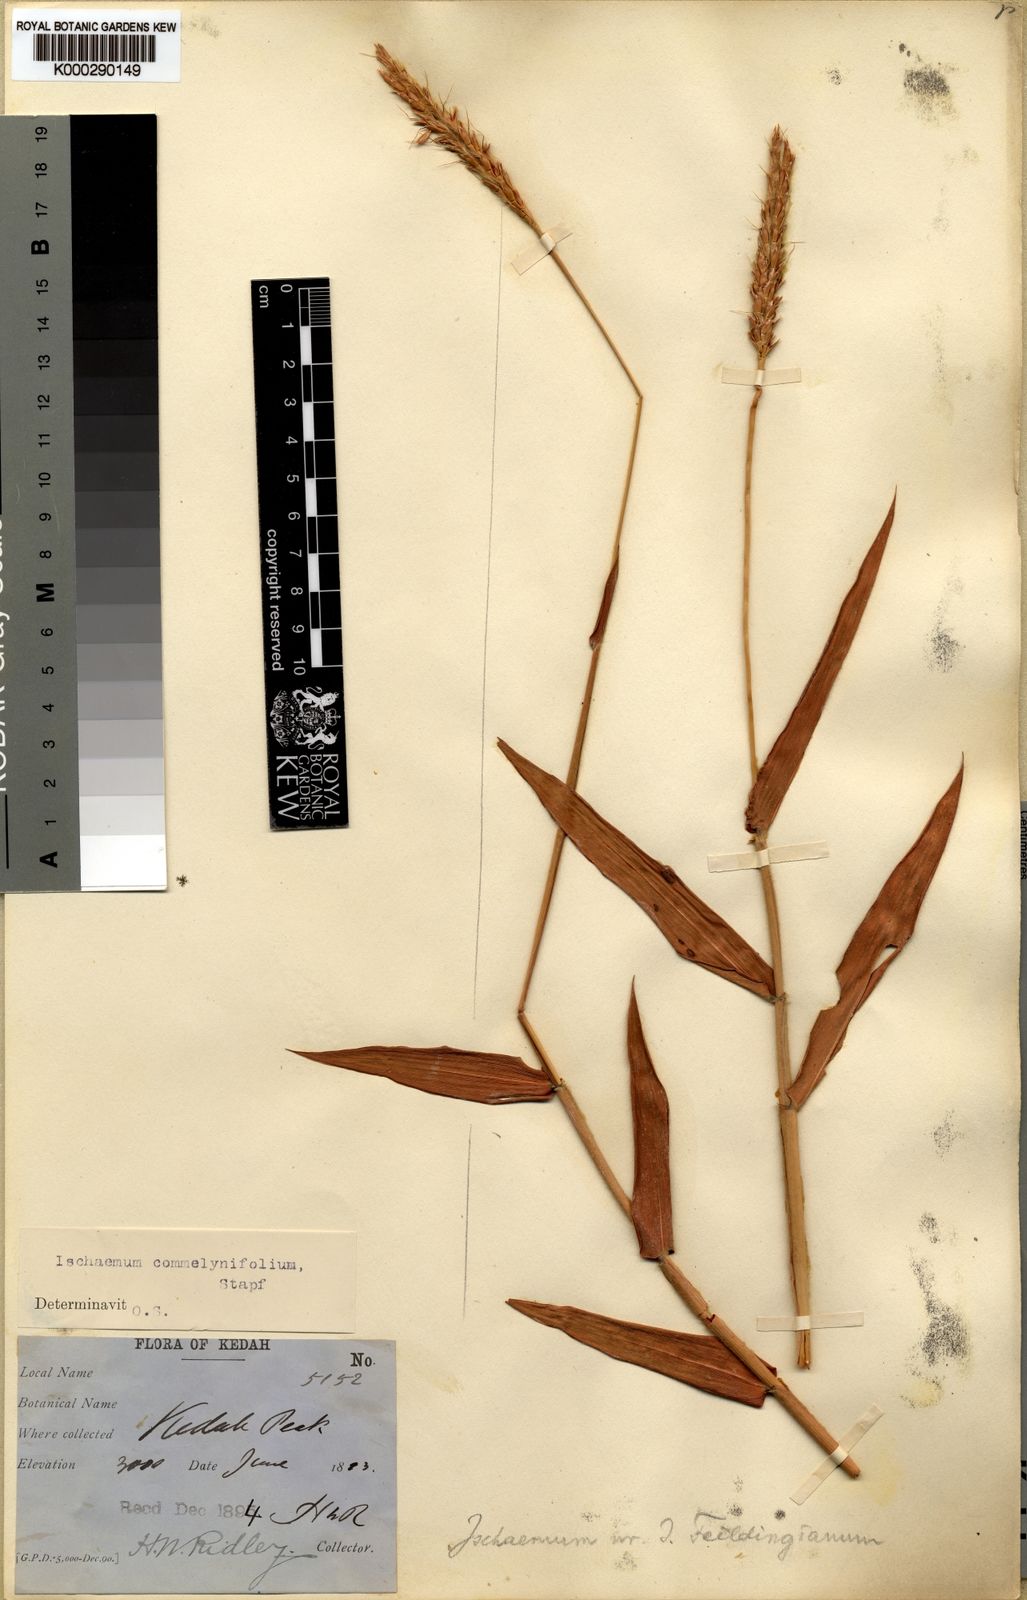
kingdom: Plantae
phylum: Tracheophyta
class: Liliopsida
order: Poales
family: Poaceae
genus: Ischaemum
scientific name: Ischaemum feildingianum
